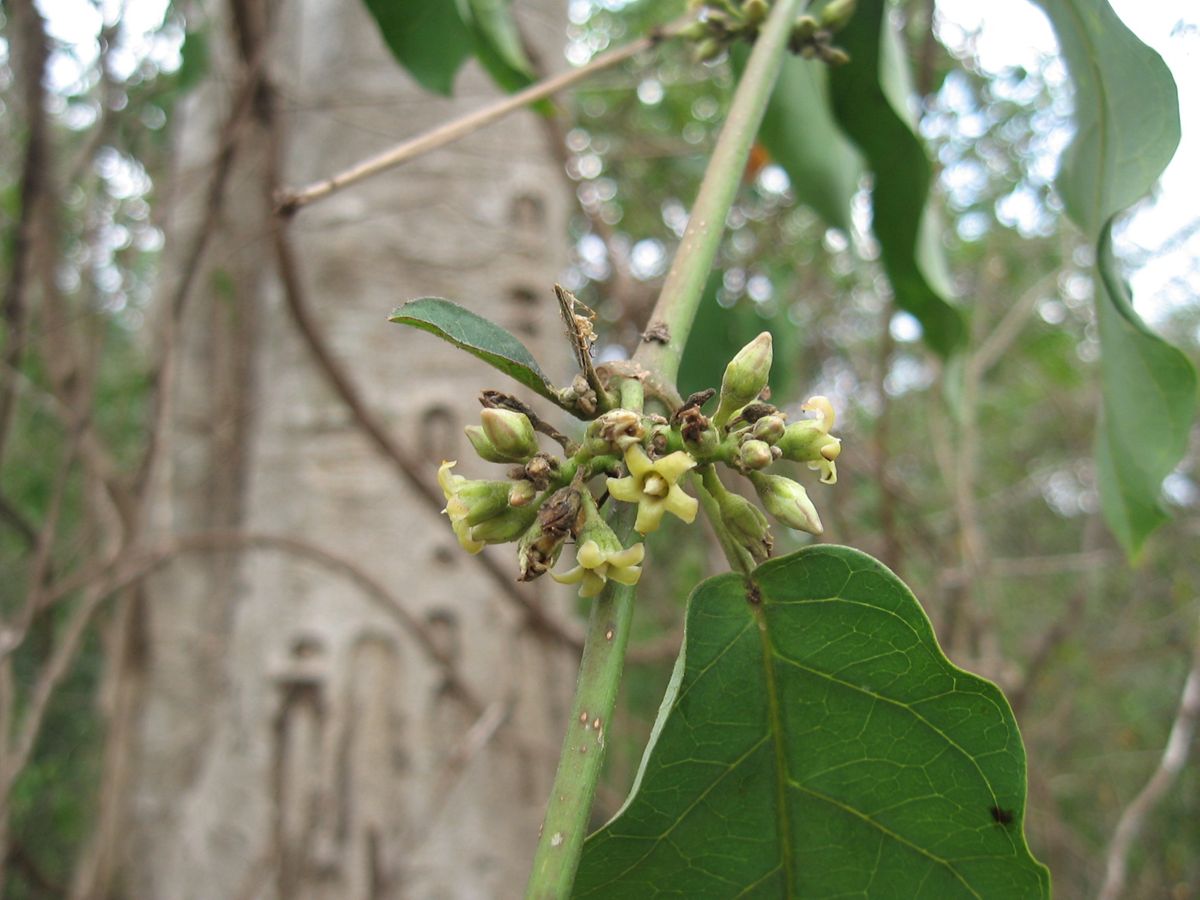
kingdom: Plantae
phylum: Tracheophyta
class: Magnoliopsida
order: Gentianales
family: Apocynaceae
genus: Ruehssia
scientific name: Ruehssia nicoyana
